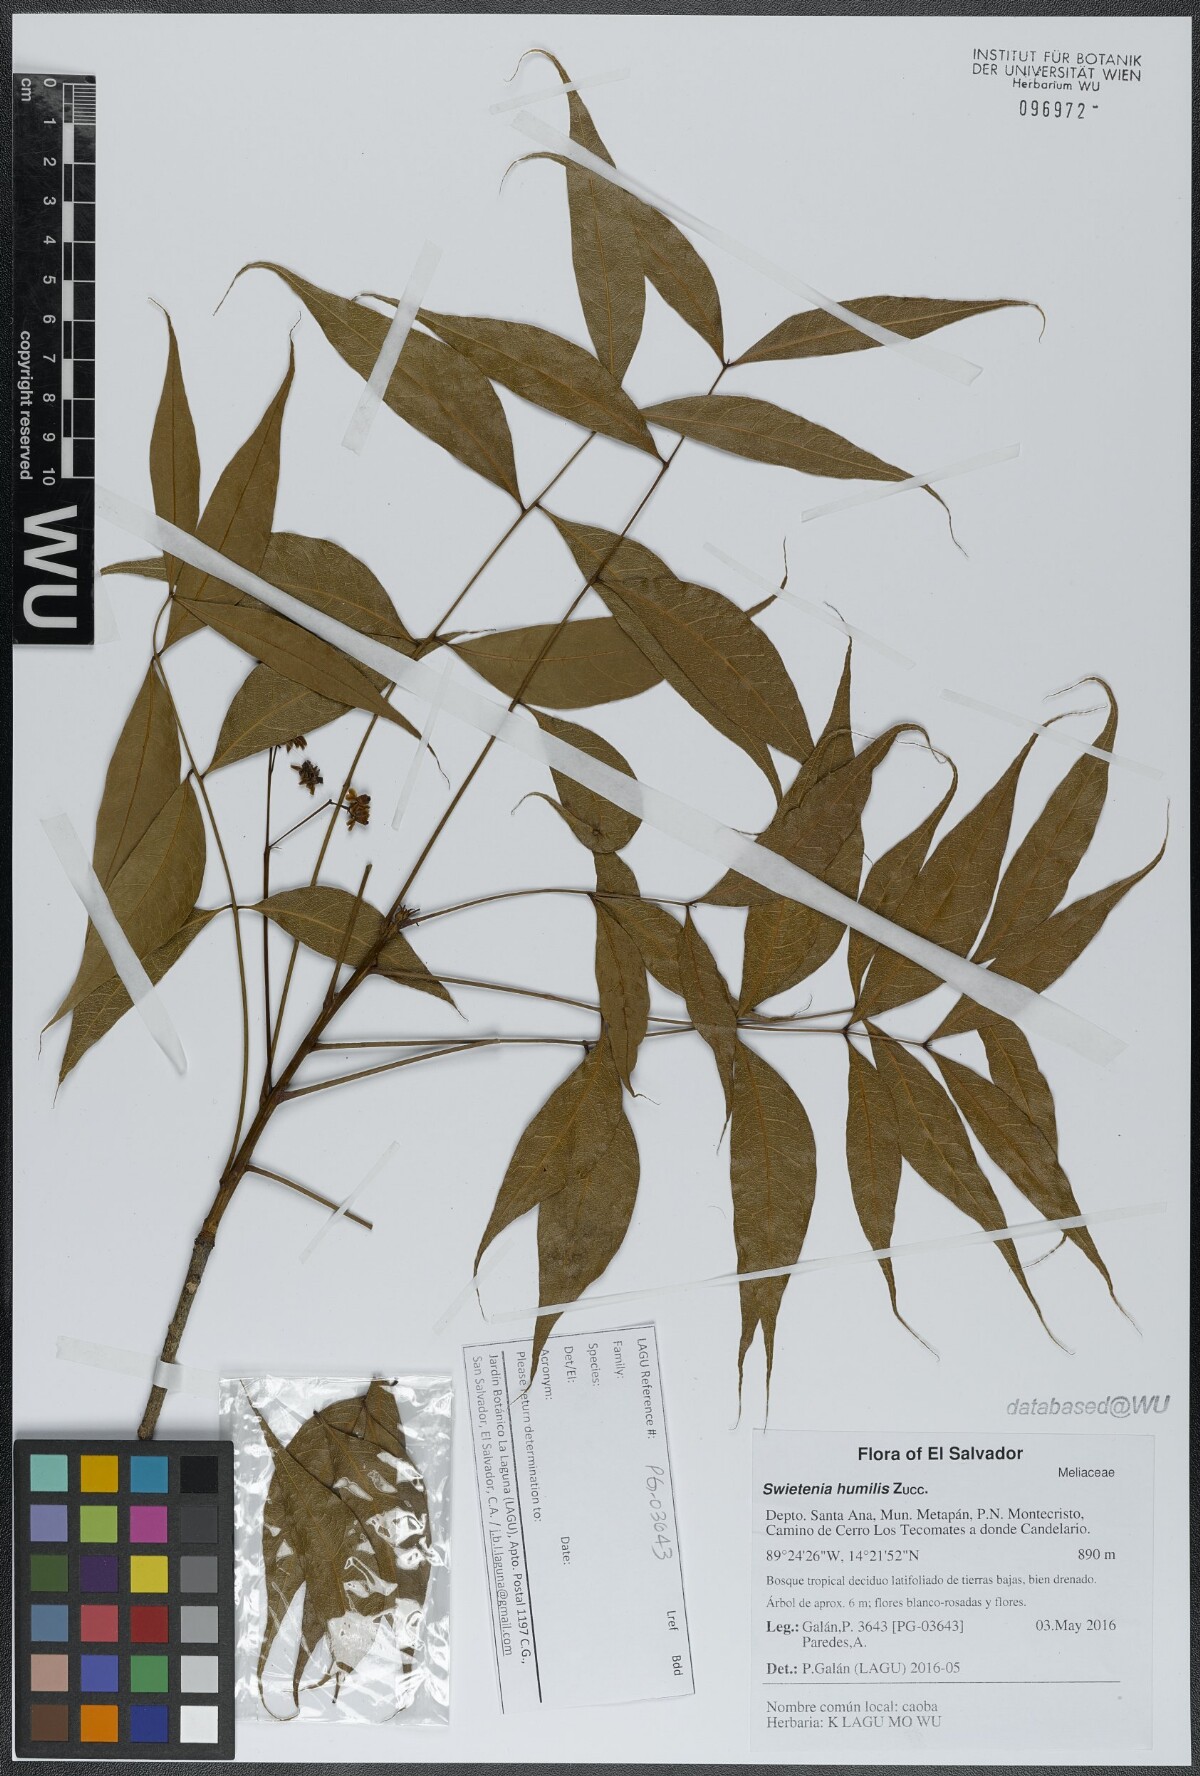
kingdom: Plantae
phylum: Tracheophyta
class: Magnoliopsida
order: Sapindales
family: Meliaceae
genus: Swietenia
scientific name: Swietenia humilis
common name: Pacific coast mahogany
